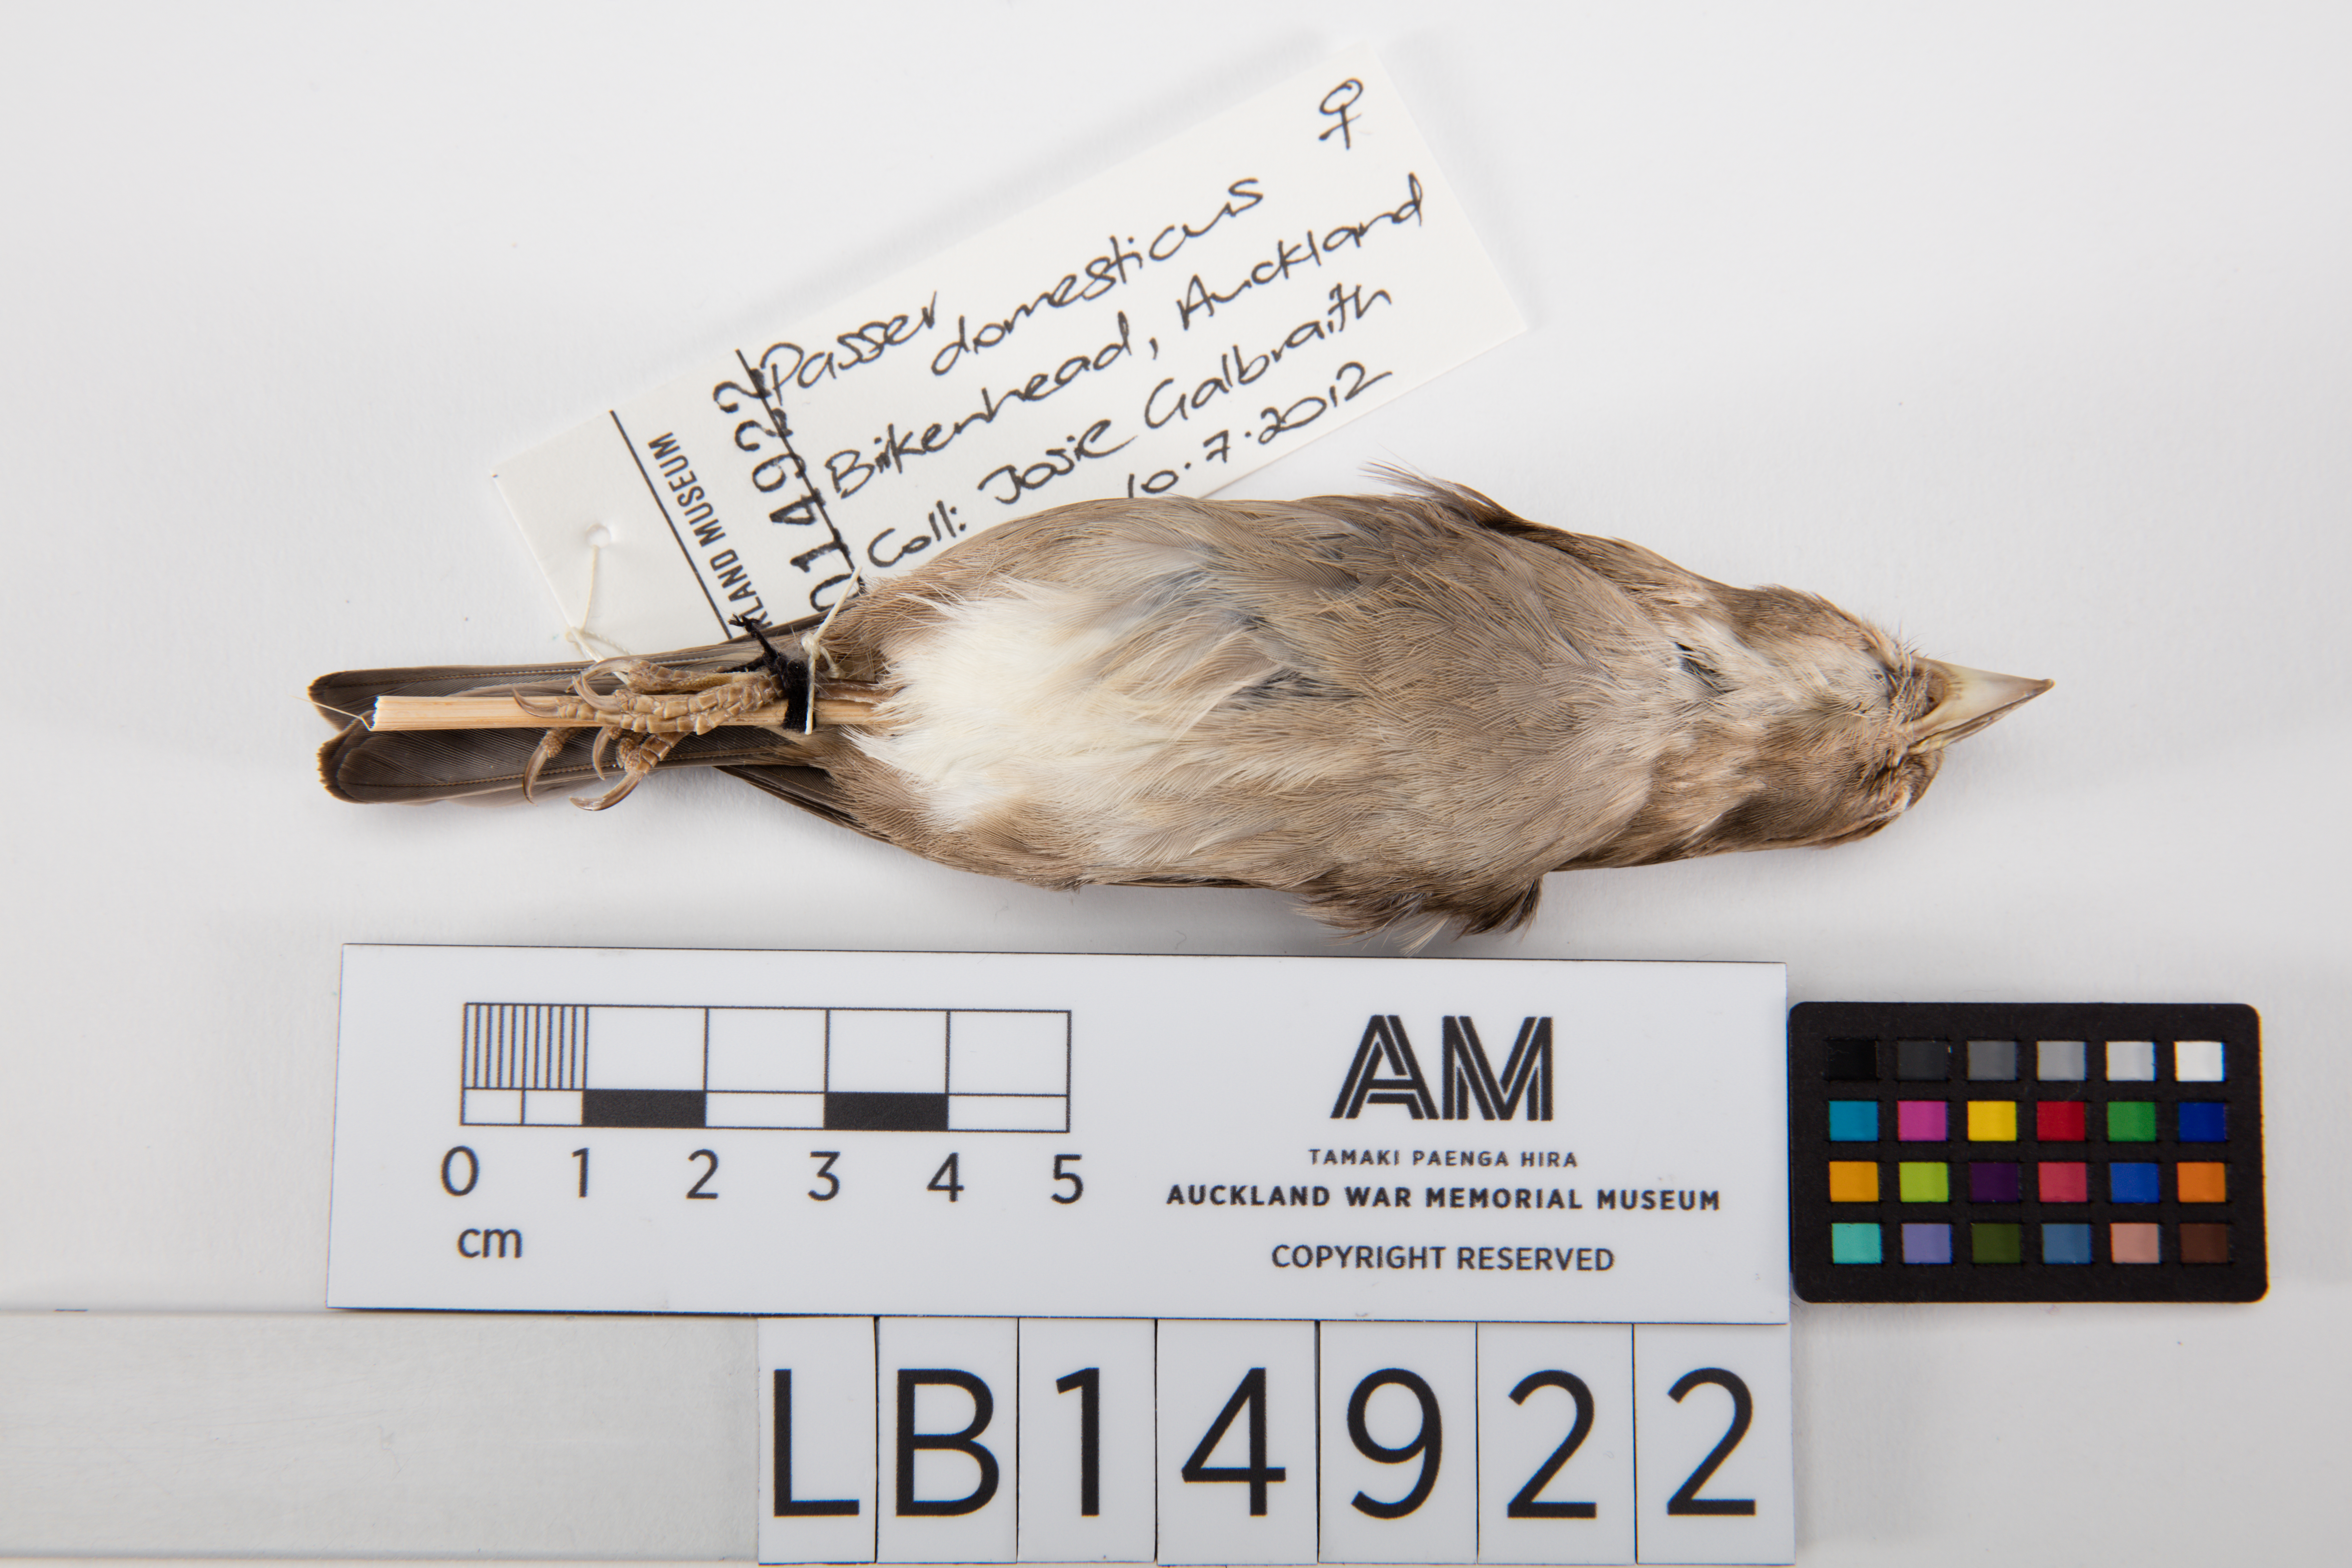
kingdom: Animalia
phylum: Chordata
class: Aves
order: Passeriformes
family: Passeridae
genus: Passer
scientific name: Passer domesticus
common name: House sparrow
